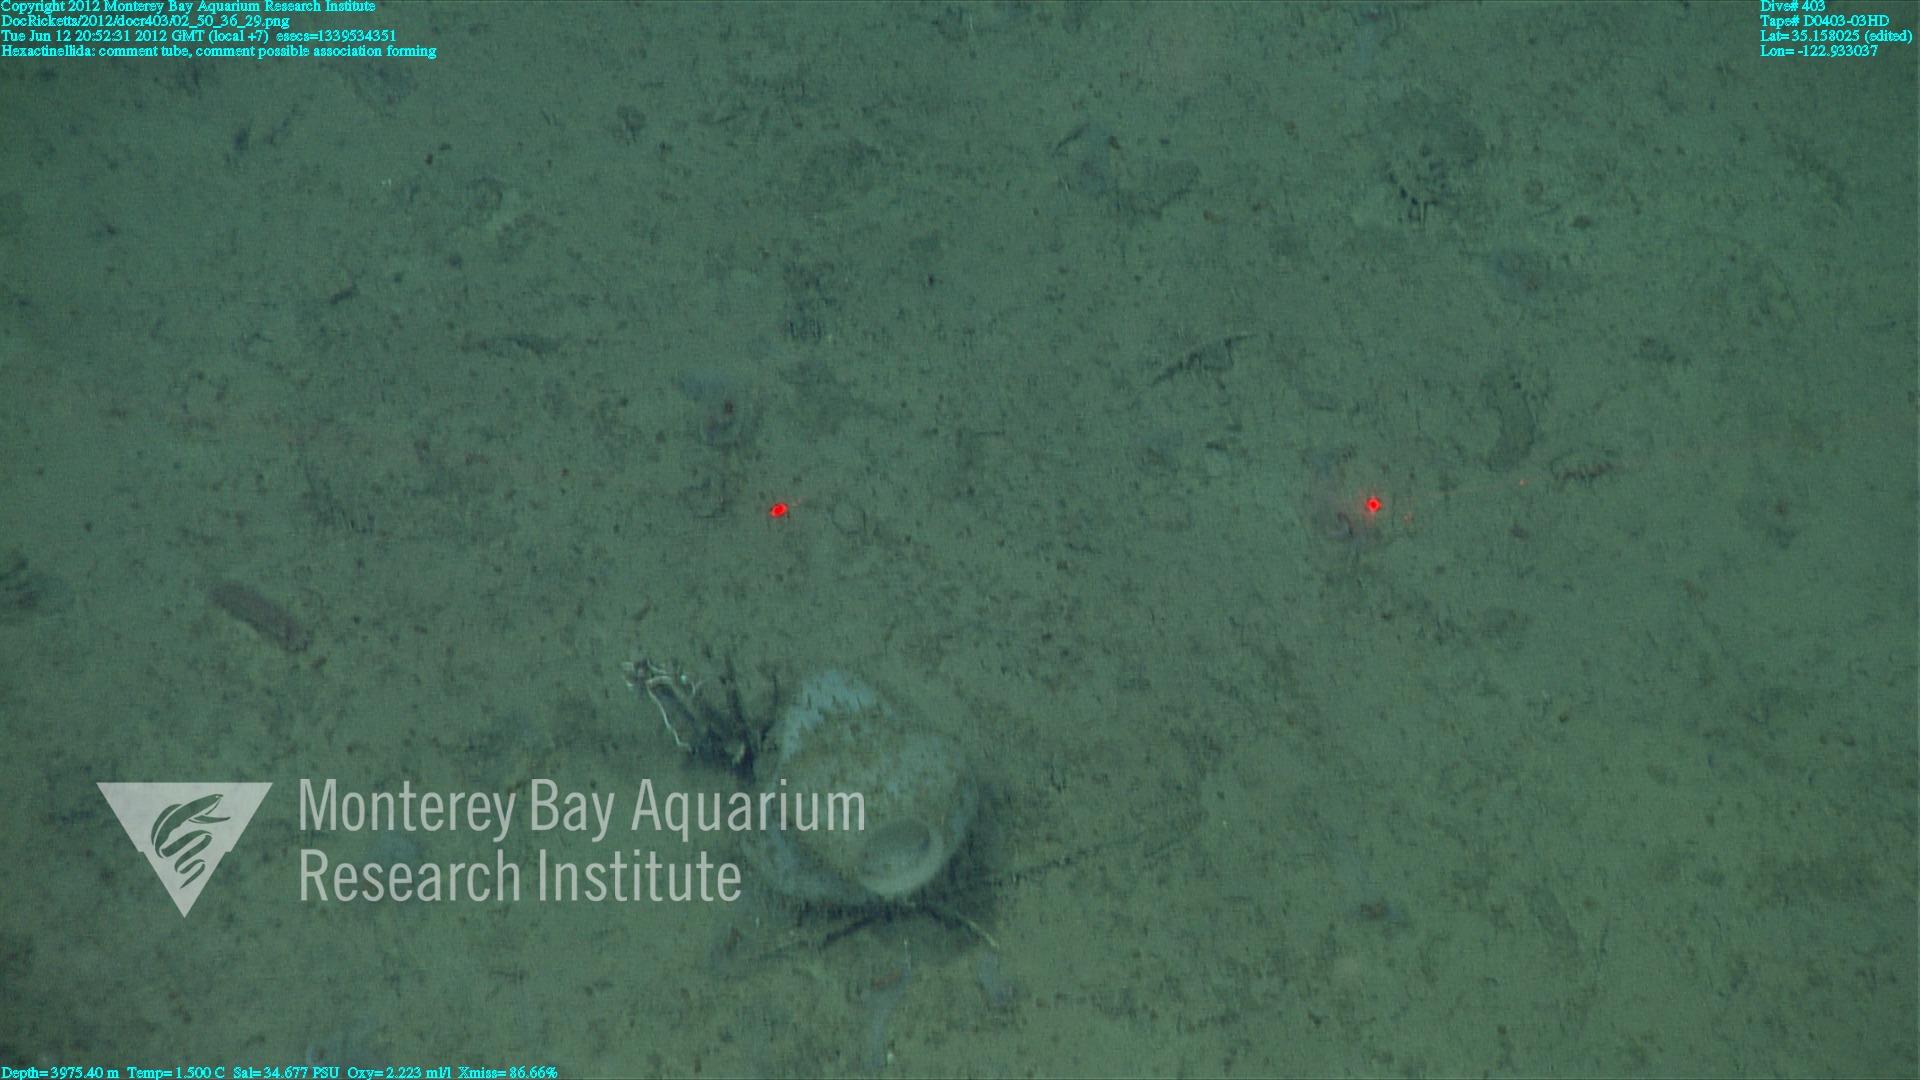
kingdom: Animalia
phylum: Porifera
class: Hexactinellida
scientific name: Hexactinellida
